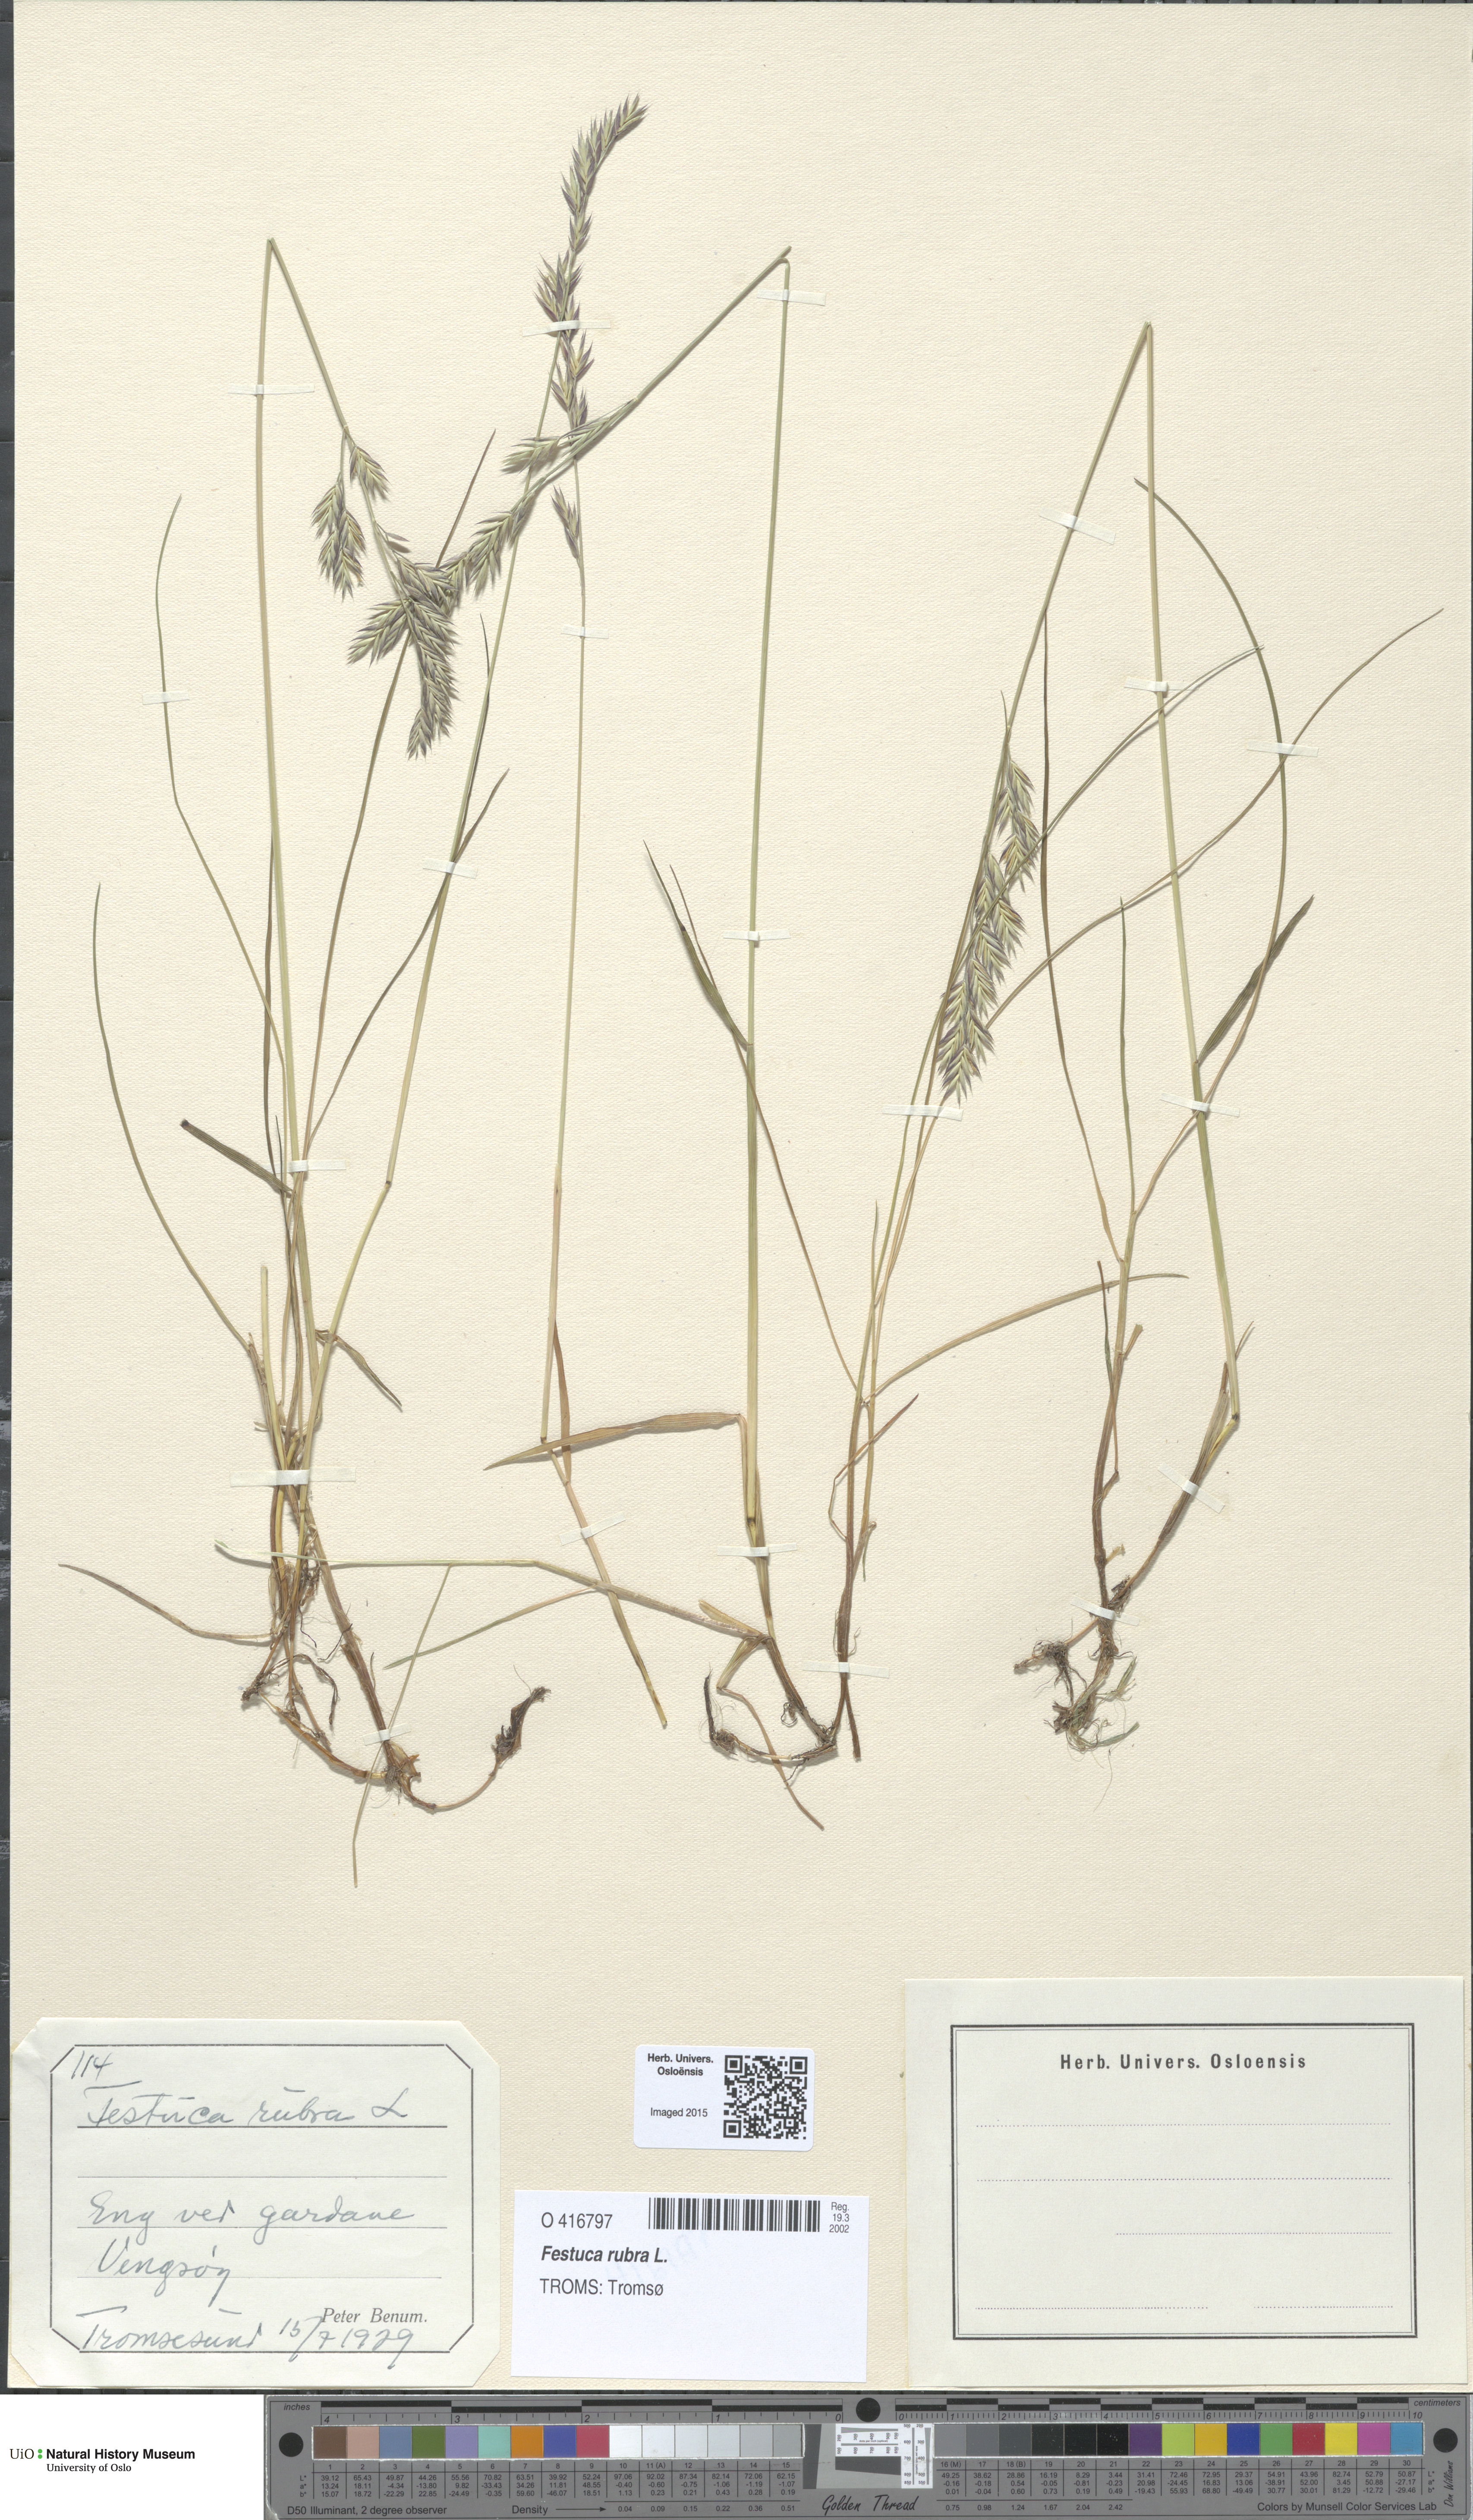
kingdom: Plantae
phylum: Tracheophyta
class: Liliopsida
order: Poales
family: Poaceae
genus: Festuca
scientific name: Festuca rubra
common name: Red fescue
